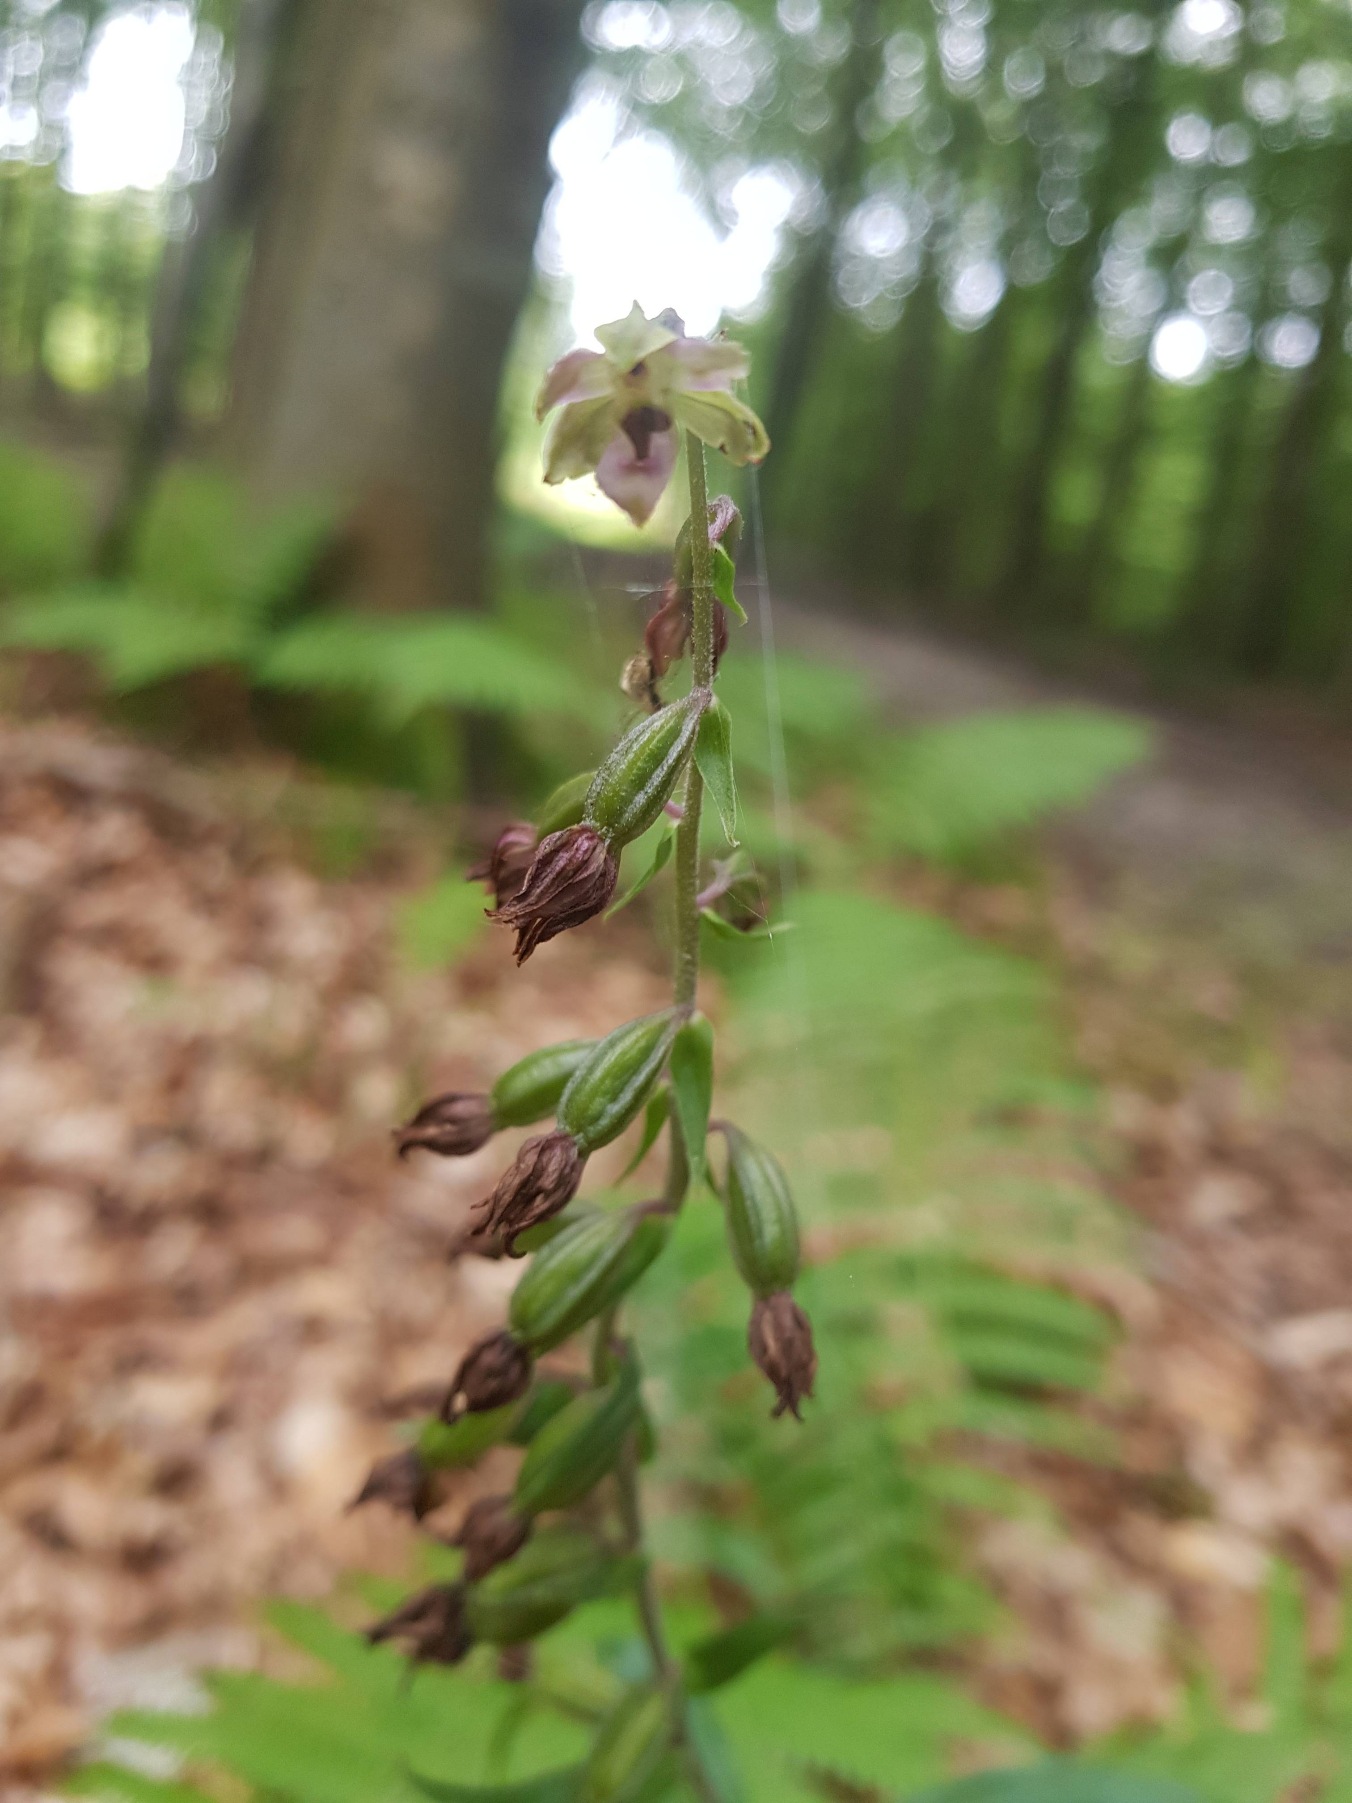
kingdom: Plantae
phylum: Tracheophyta
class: Liliopsida
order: Asparagales
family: Orchidaceae
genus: Epipactis
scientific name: Epipactis helleborine
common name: Skov-hullæbe
